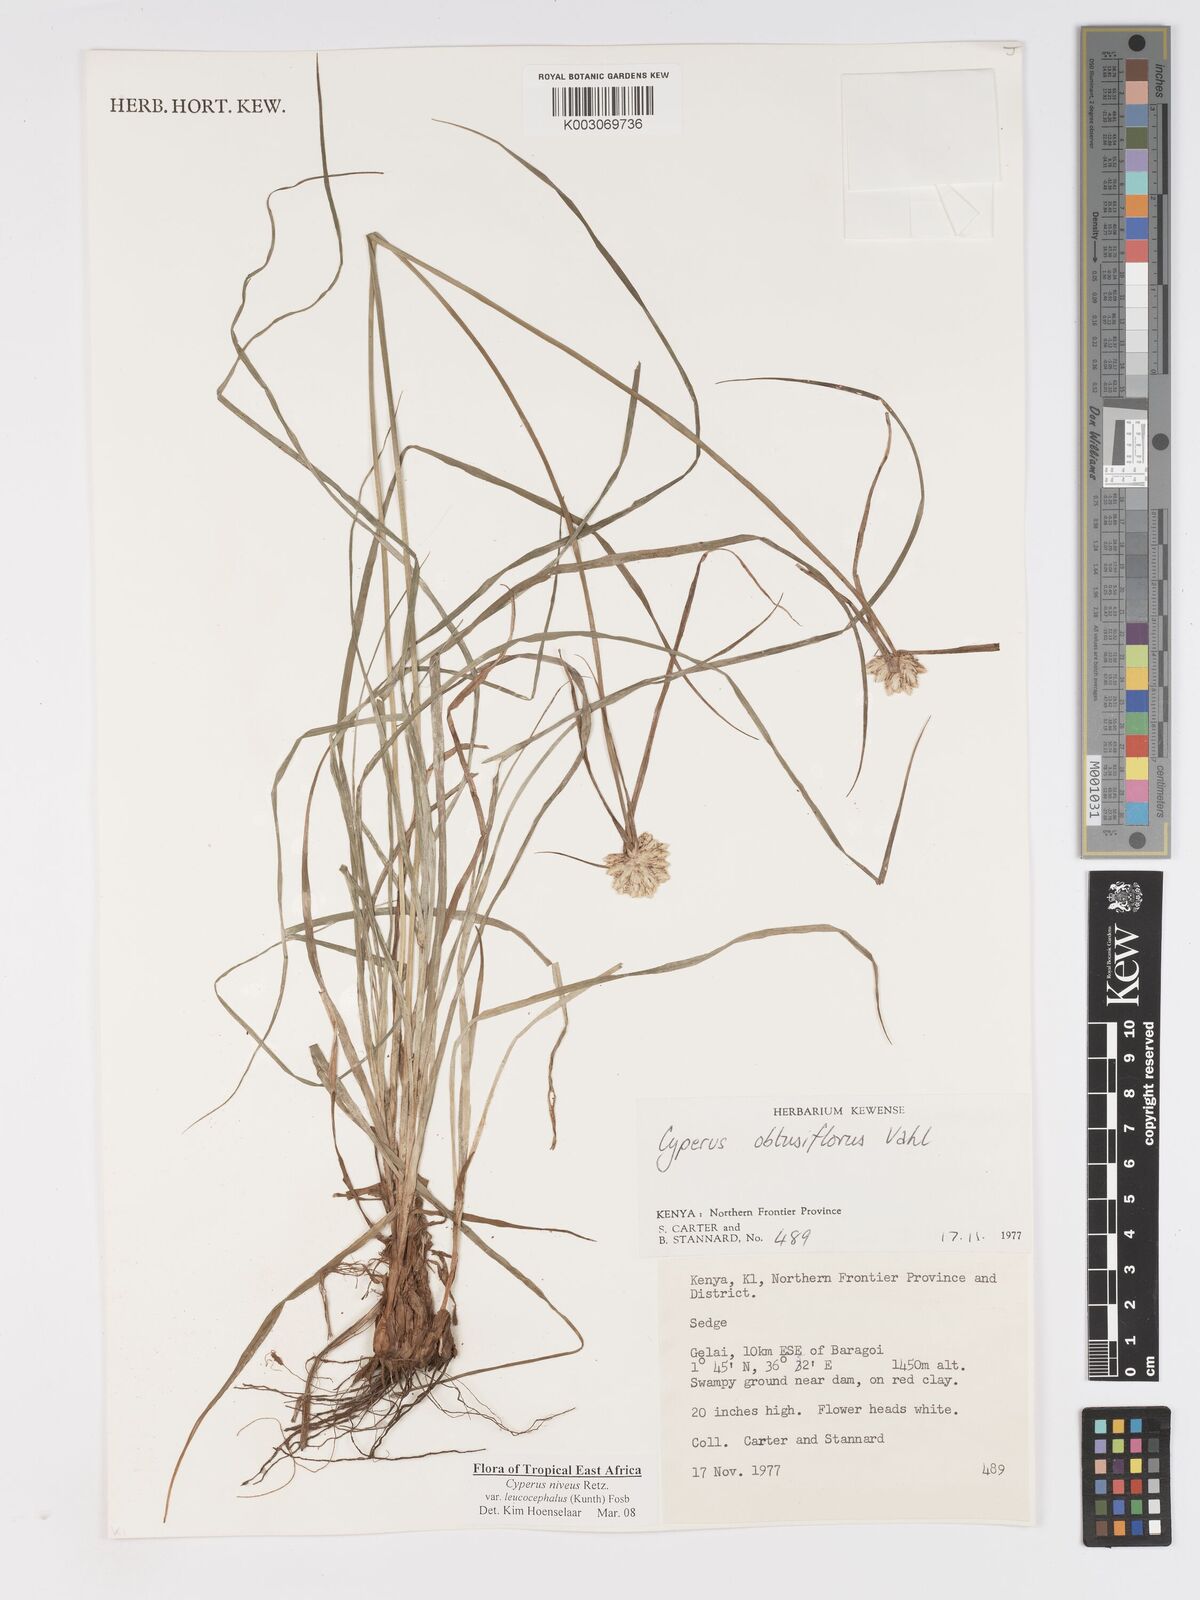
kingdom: Plantae
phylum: Tracheophyta
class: Liliopsida
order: Poales
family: Cyperaceae
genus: Cyperus
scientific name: Cyperus niveus
